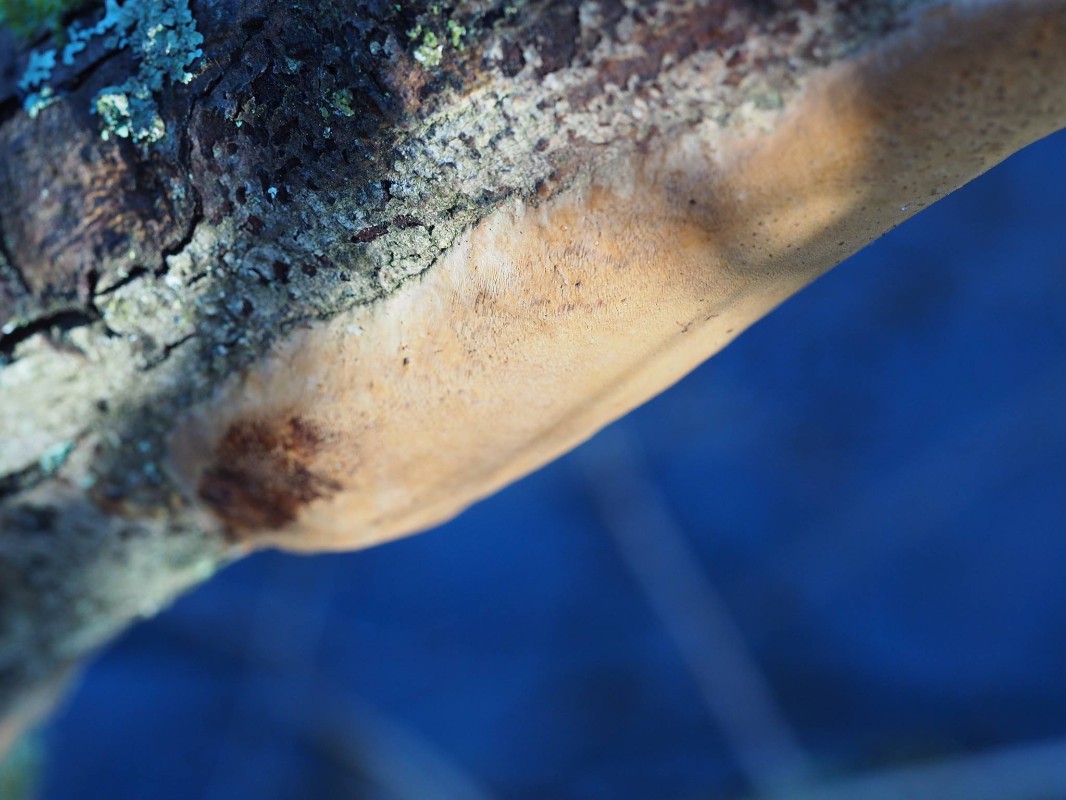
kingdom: Fungi
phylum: Basidiomycota
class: Agaricomycetes
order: Hymenochaetales
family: Hymenochaetaceae
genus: Fomitiporia
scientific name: Fomitiporia punctata
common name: pude-ildporesvamp
